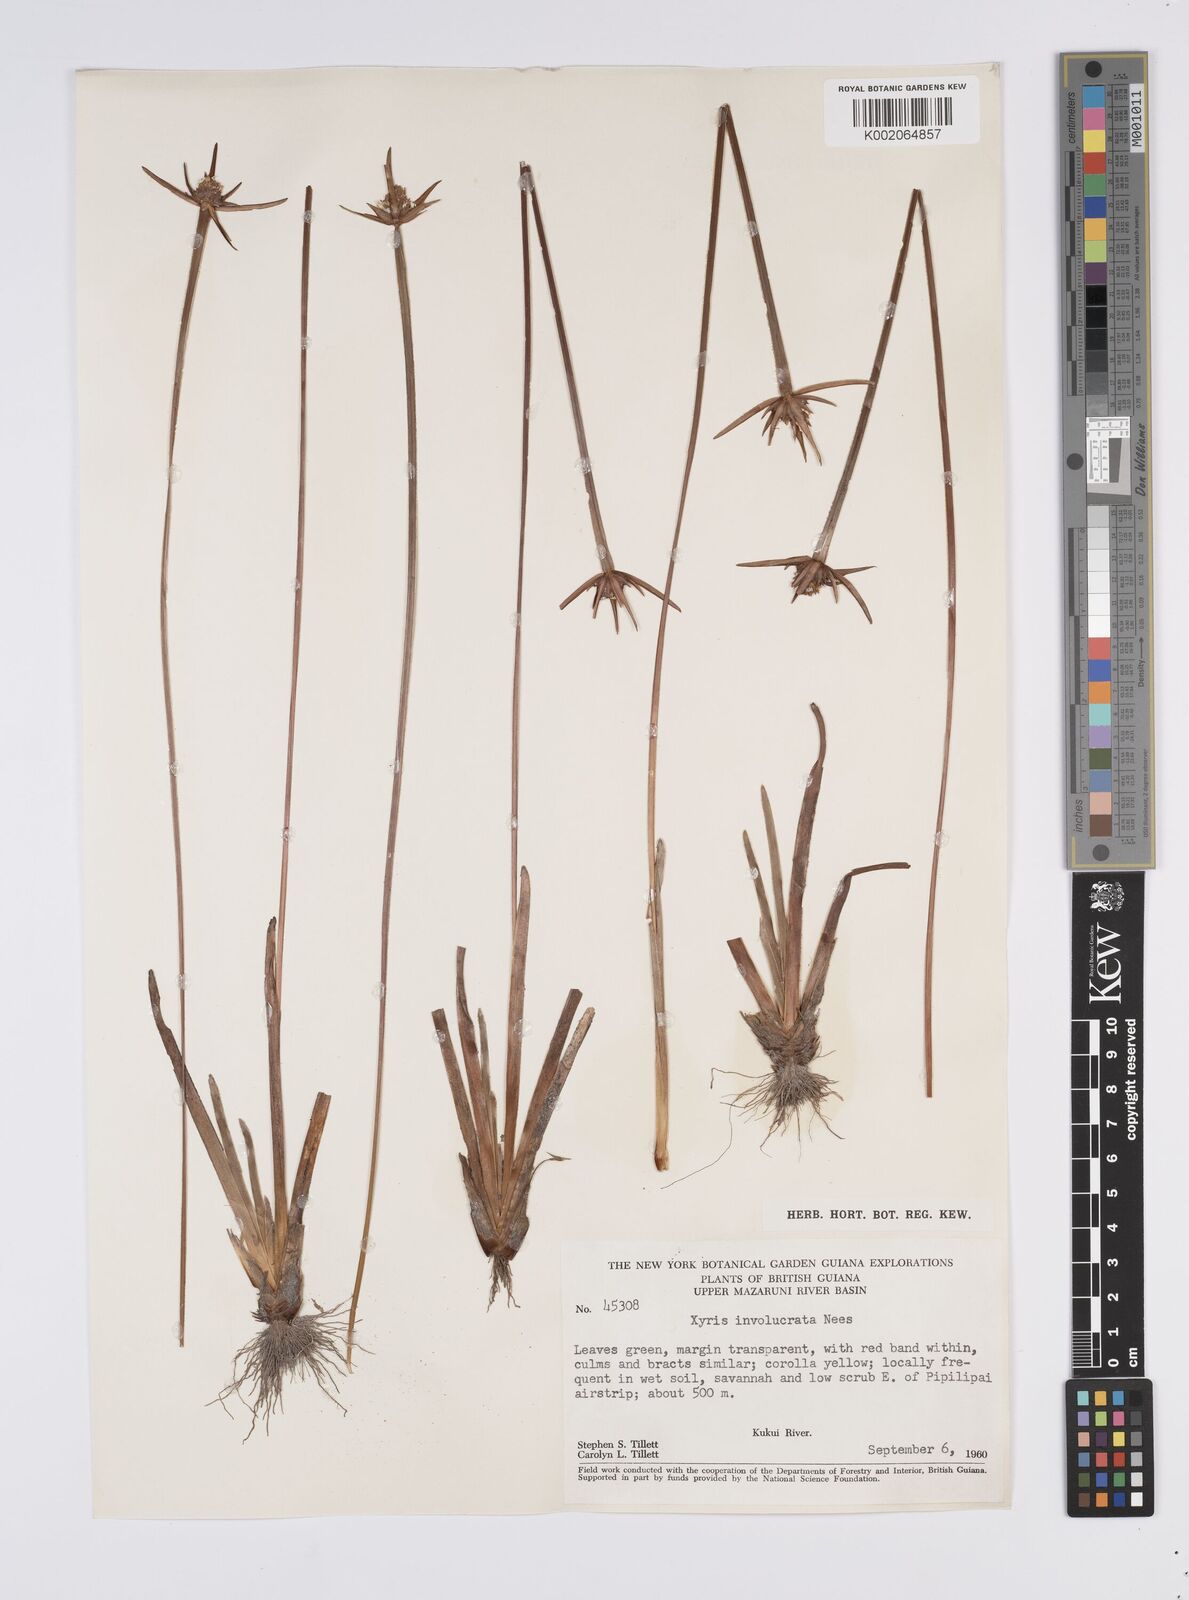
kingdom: Plantae
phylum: Tracheophyta
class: Liliopsida
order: Poales
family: Xyridaceae
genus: Xyris
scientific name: Xyris involucrata
